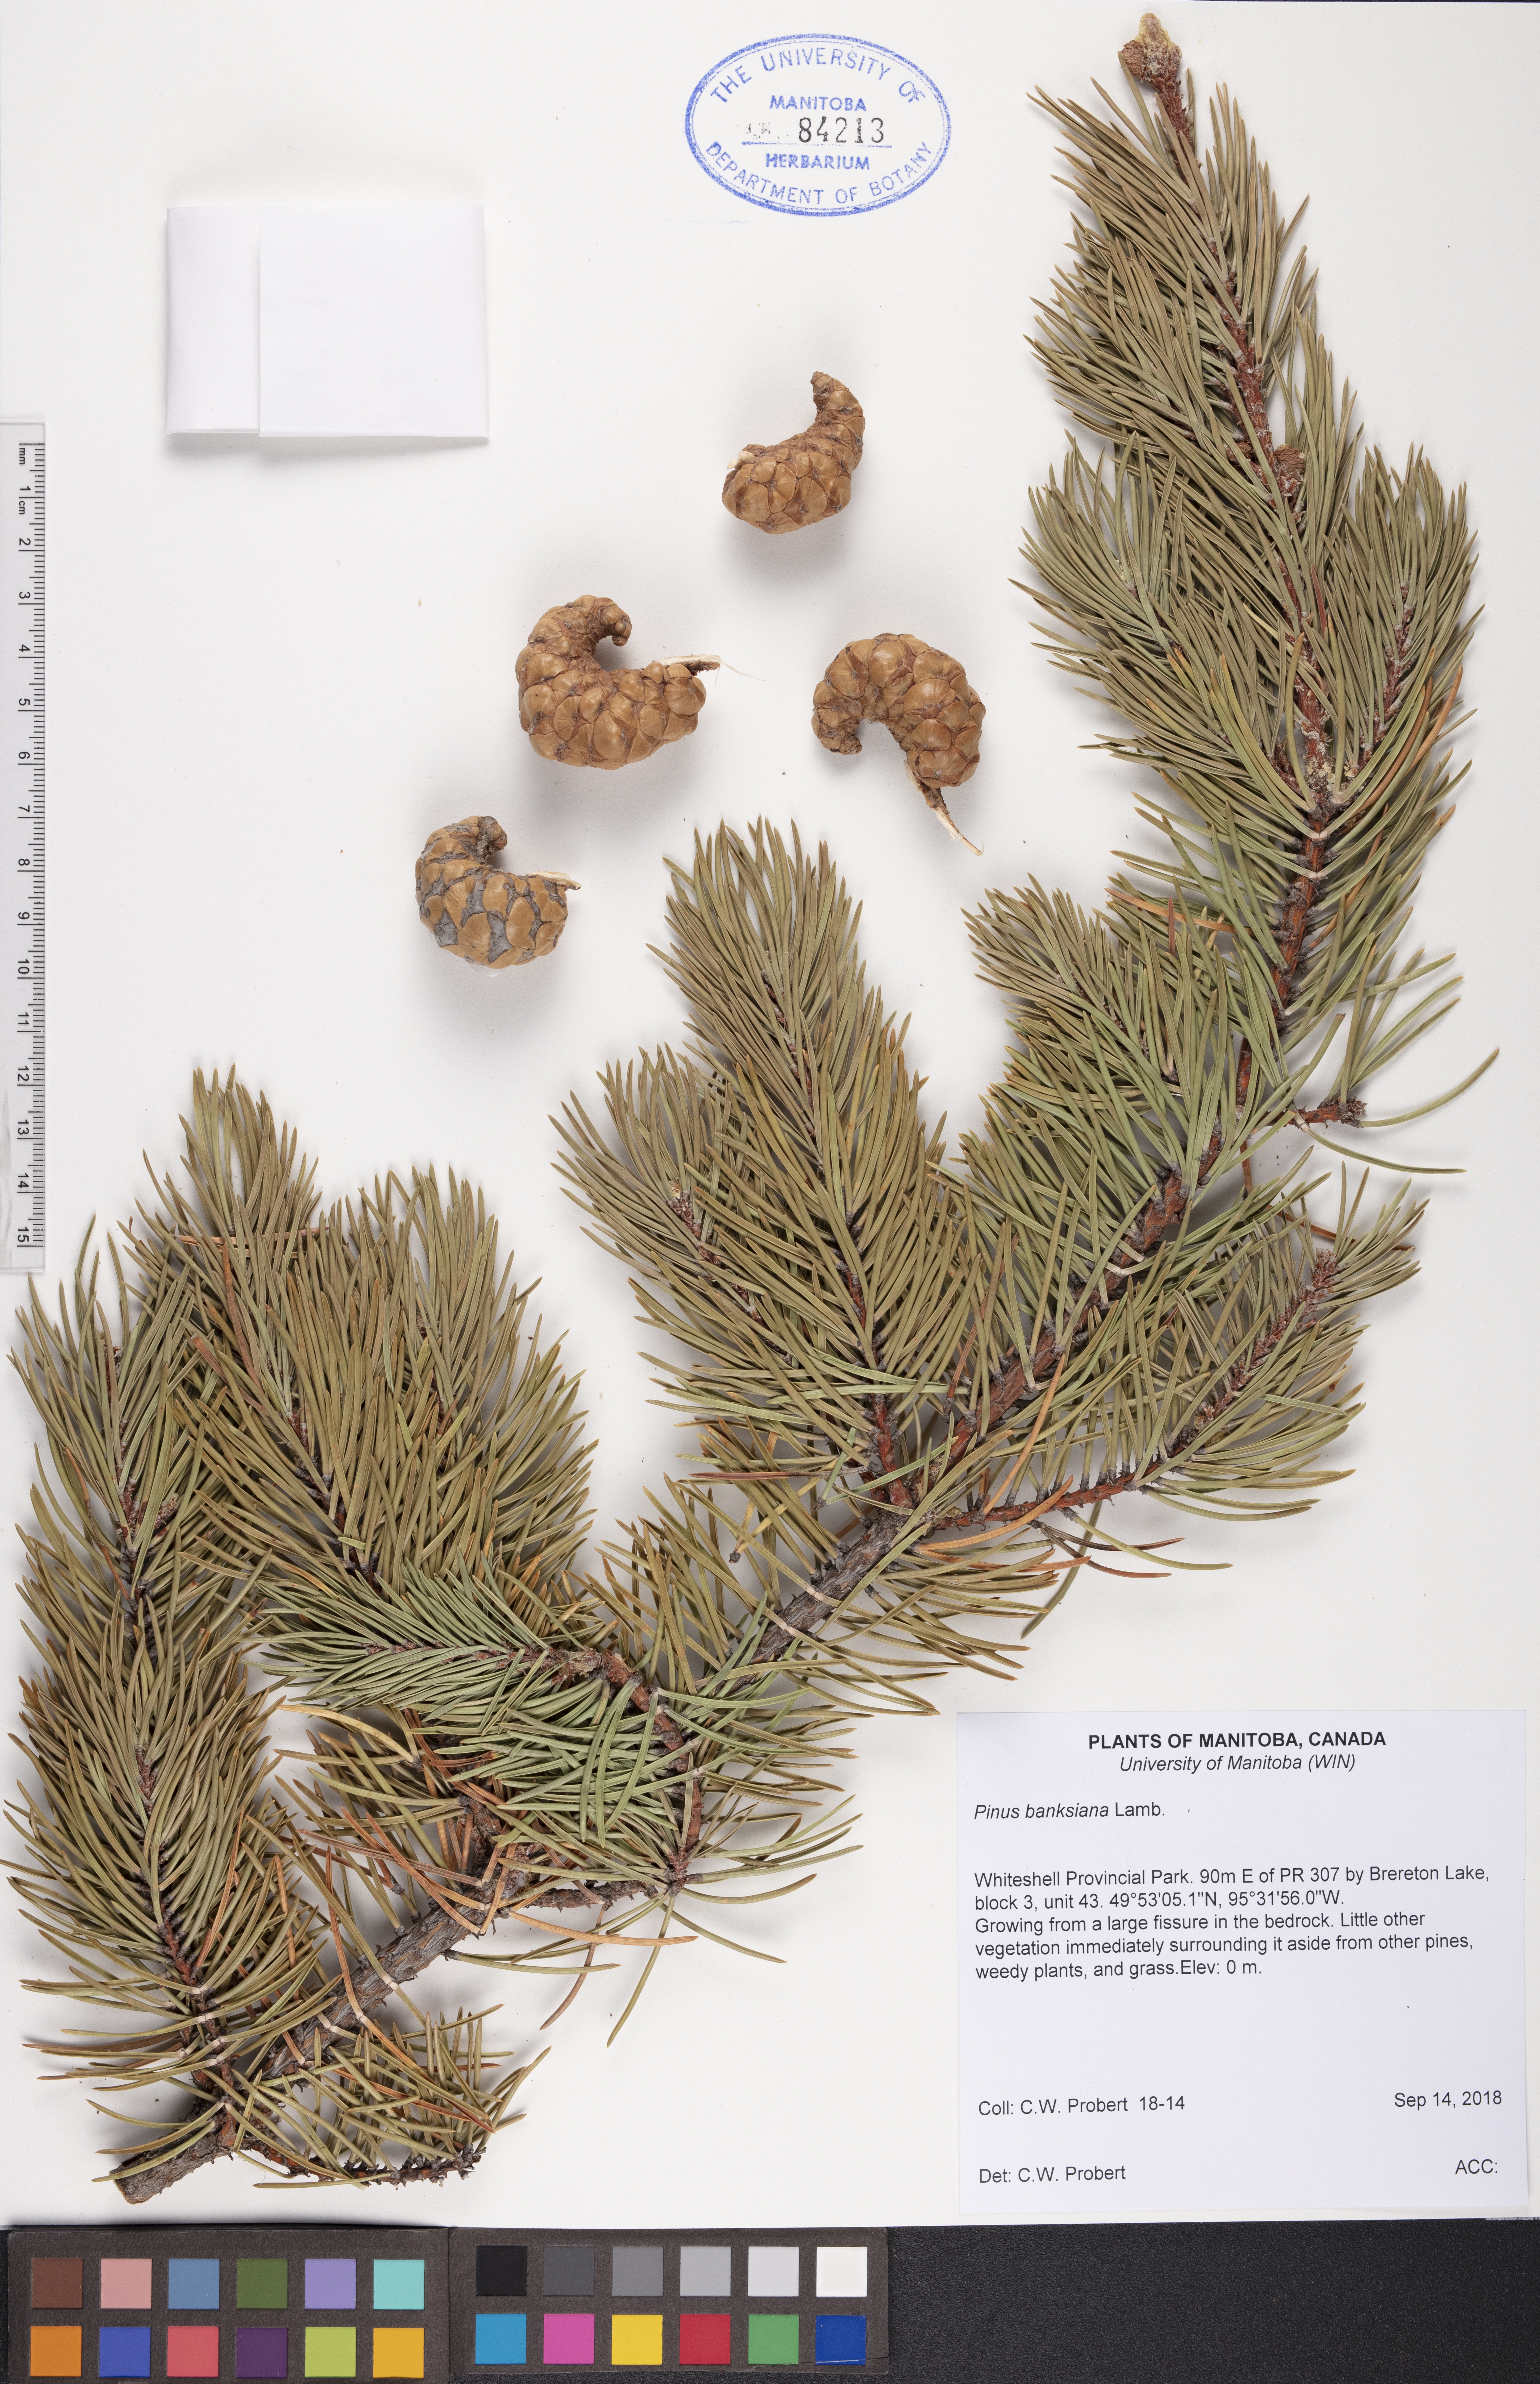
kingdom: Plantae
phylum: Tracheophyta
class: Pinopsida
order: Pinales
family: Pinaceae
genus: Pinus
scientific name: Pinus banksiana
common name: Jack pine
